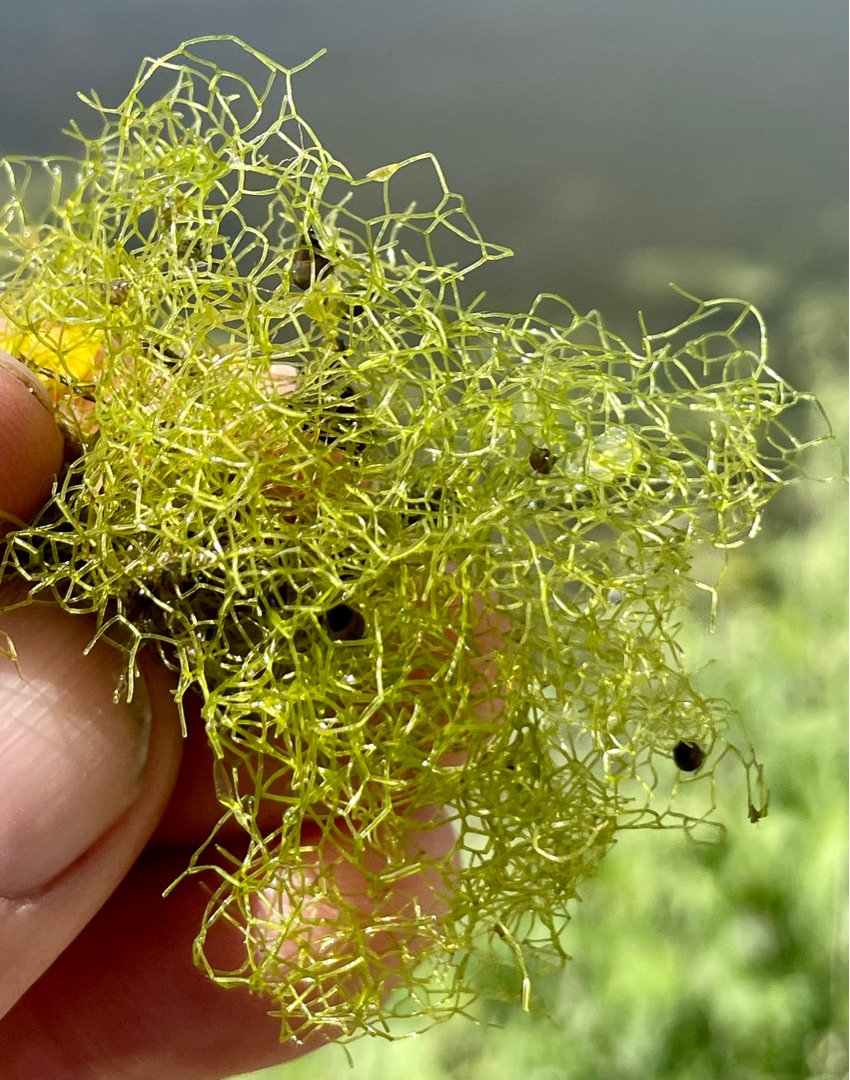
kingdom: Plantae
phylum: Chlorophyta
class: Chlorophyceae
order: Sphaeropleales
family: Hydrodictyaceae
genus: Hydrodictyon
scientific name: Hydrodictyon reticulatum
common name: Vandnet
